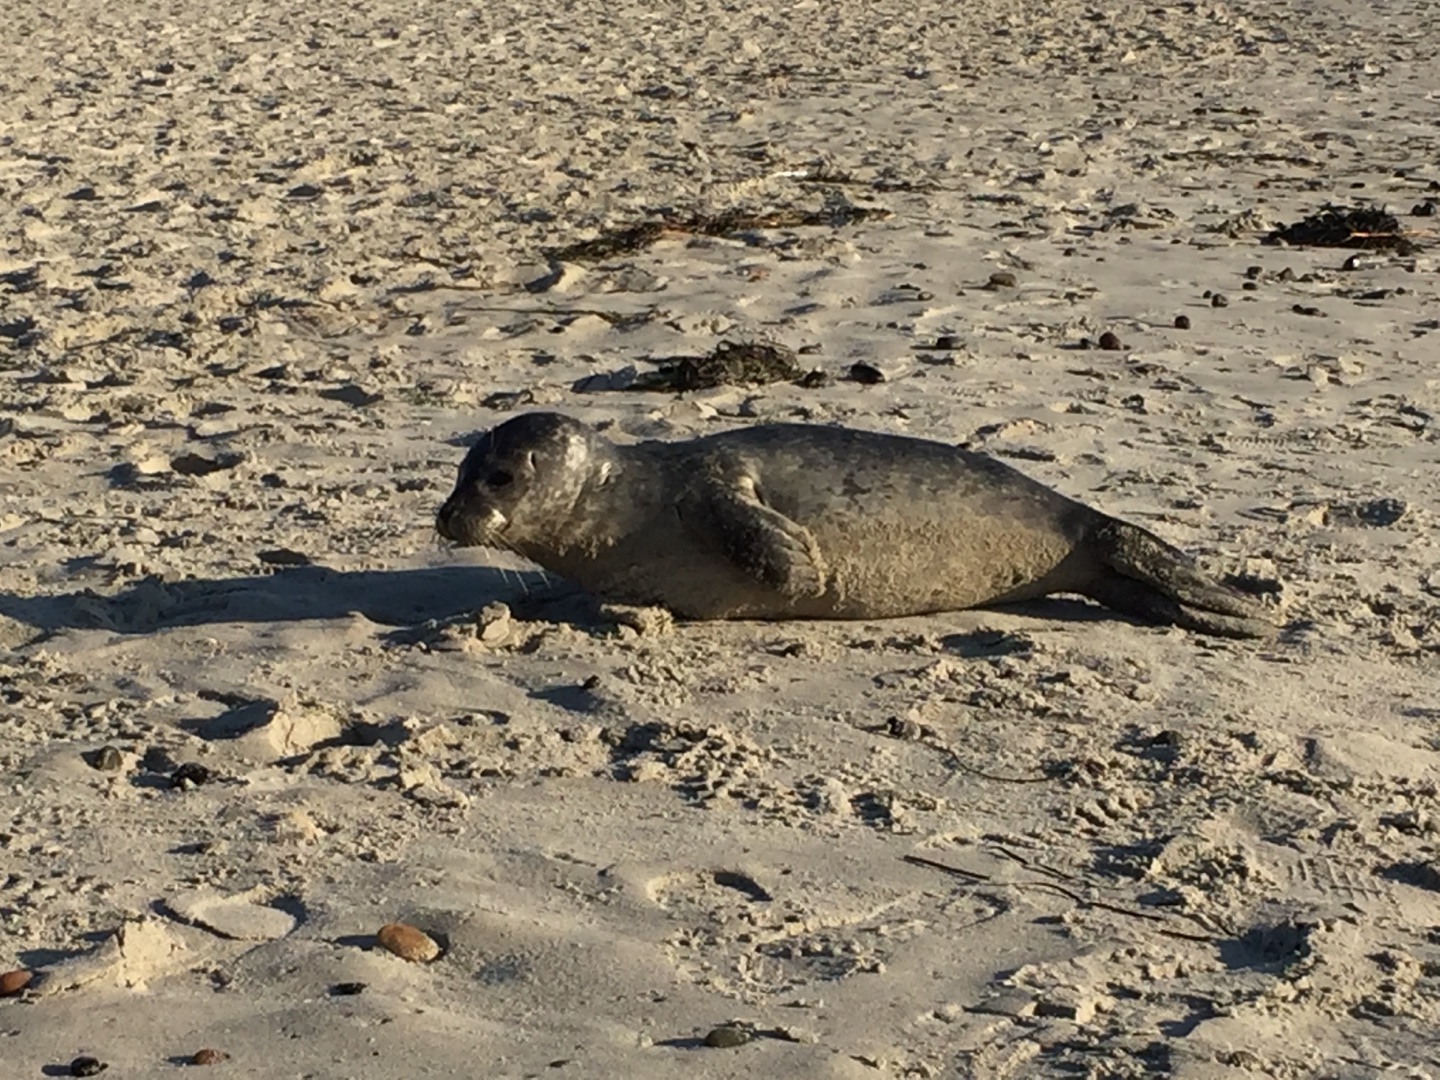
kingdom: Animalia
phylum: Chordata
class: Mammalia
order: Carnivora
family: Phocidae
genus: Phoca
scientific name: Phoca vitulina
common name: Spættet sæl
